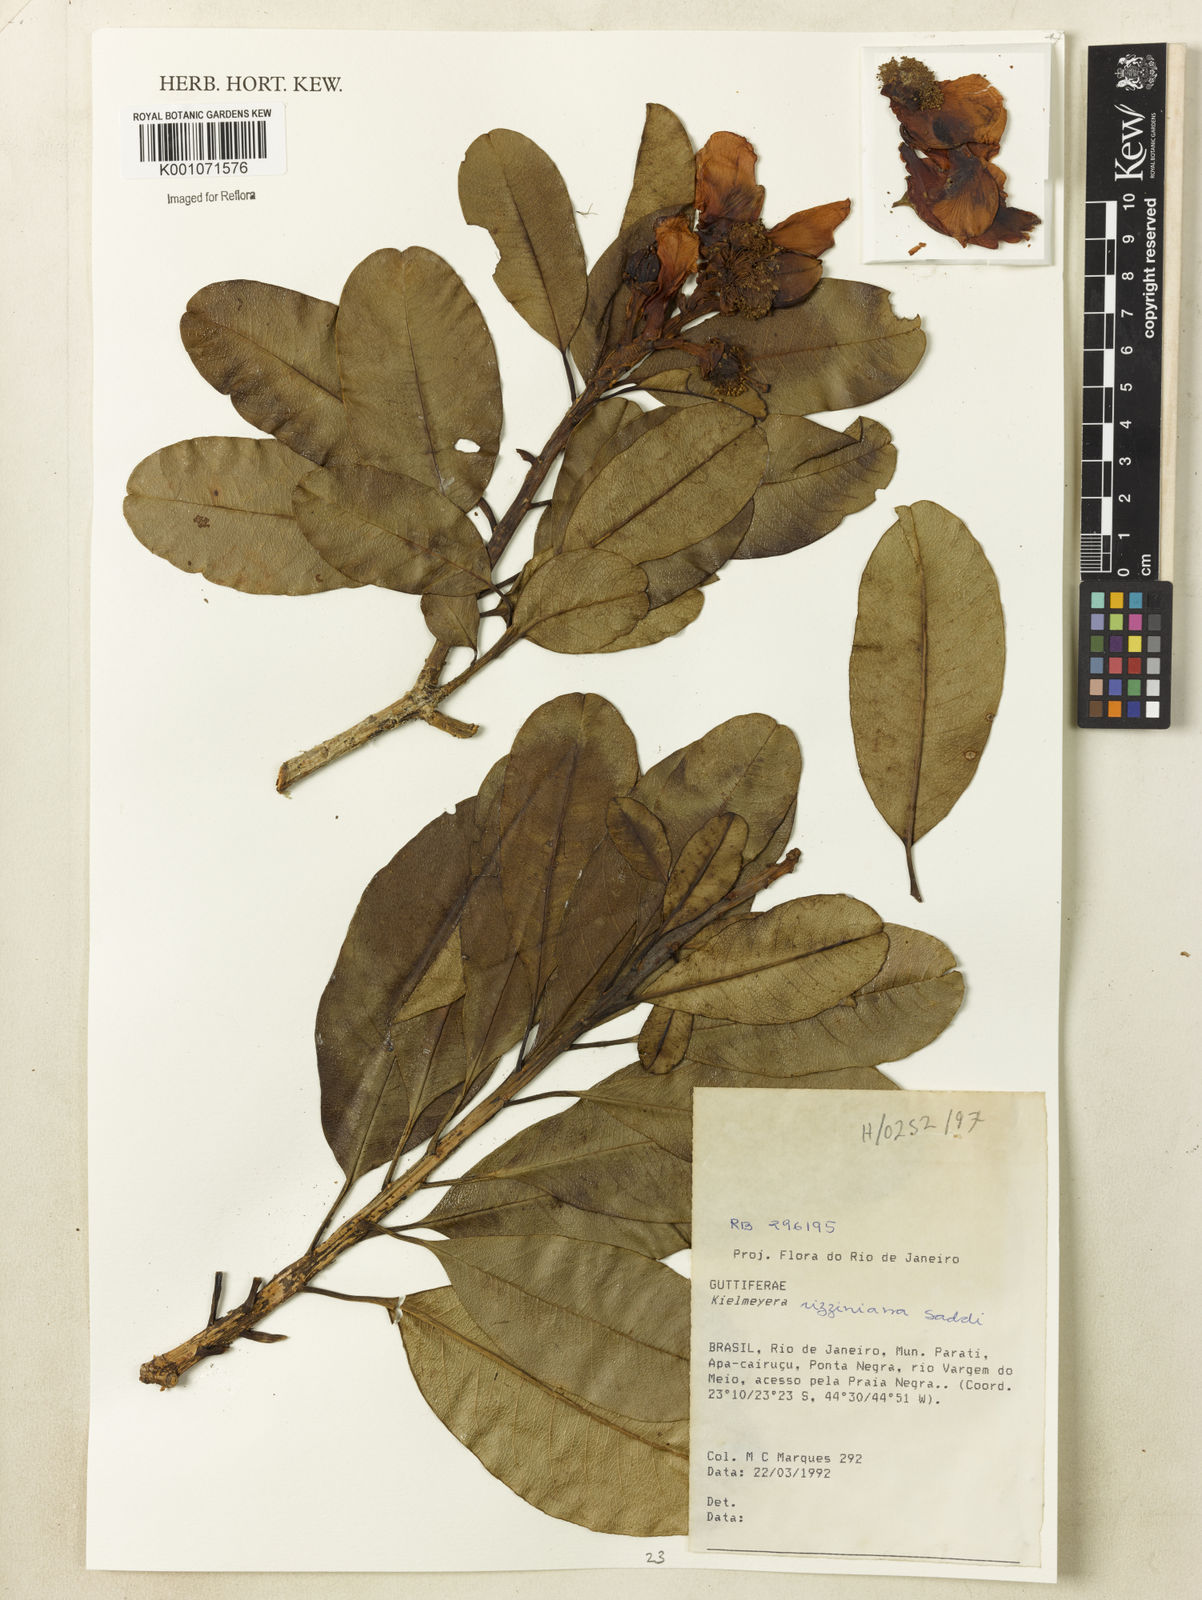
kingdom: Plantae
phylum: Tracheophyta
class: Magnoliopsida
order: Malpighiales
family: Calophyllaceae
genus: Kielmeyera
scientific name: Kielmeyera rizziniana
